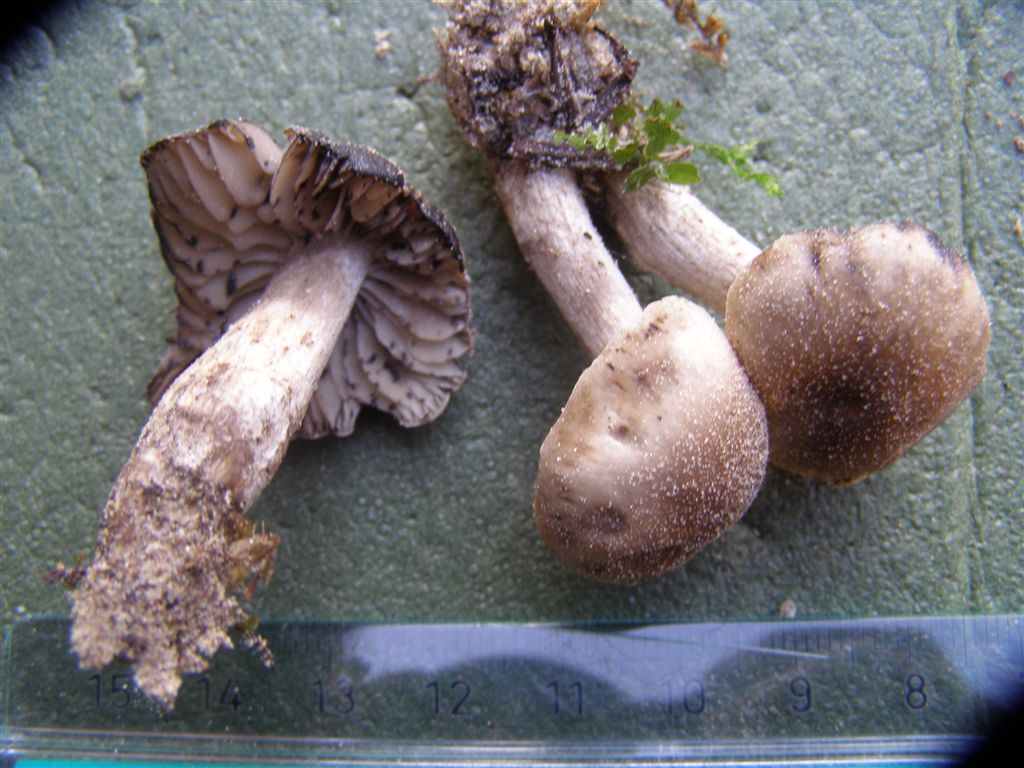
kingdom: Fungi
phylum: Basidiomycota
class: Agaricomycetes
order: Agaricales
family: Lyophyllaceae
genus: Lyophyllum
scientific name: Lyophyllum semitale
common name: sværtende gråblad
